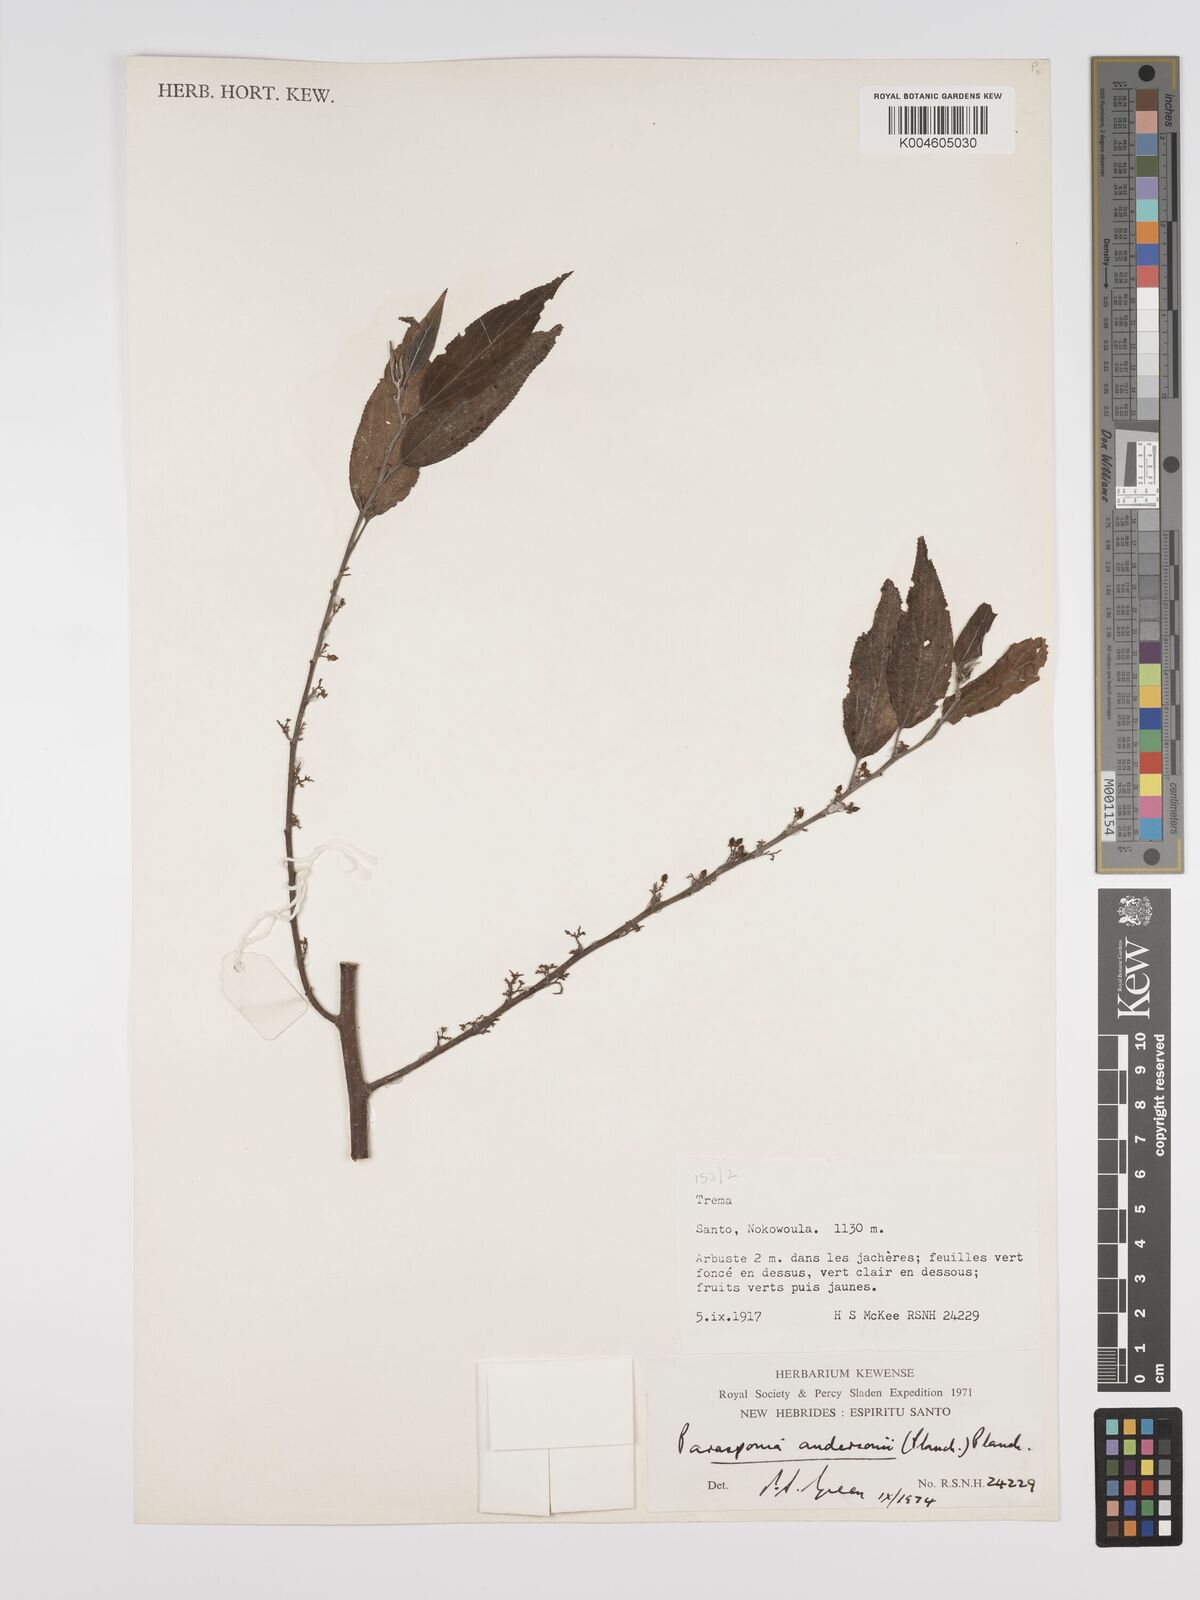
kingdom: Plantae
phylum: Tracheophyta
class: Magnoliopsida
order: Rosales
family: Cannabaceae
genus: Trema
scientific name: Trema andersonii
